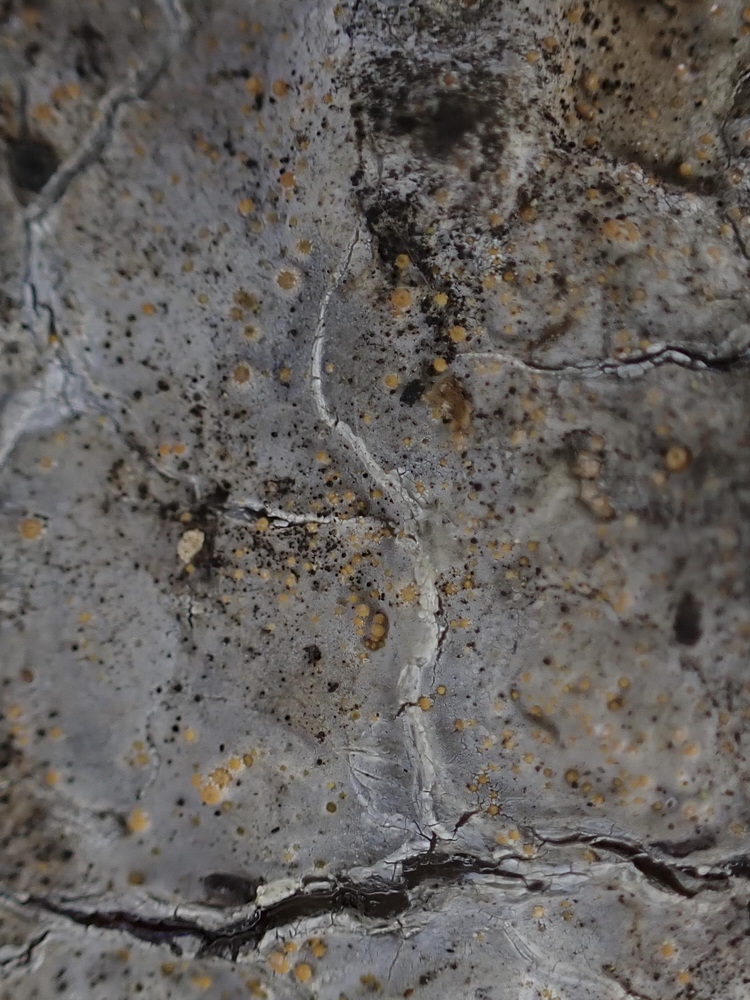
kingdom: Fungi
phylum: Ascomycota
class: Sareomycetes
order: Sareales
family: Sareaceae
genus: Sarea
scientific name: Sarea resinae
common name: orangegul harpiksskive
